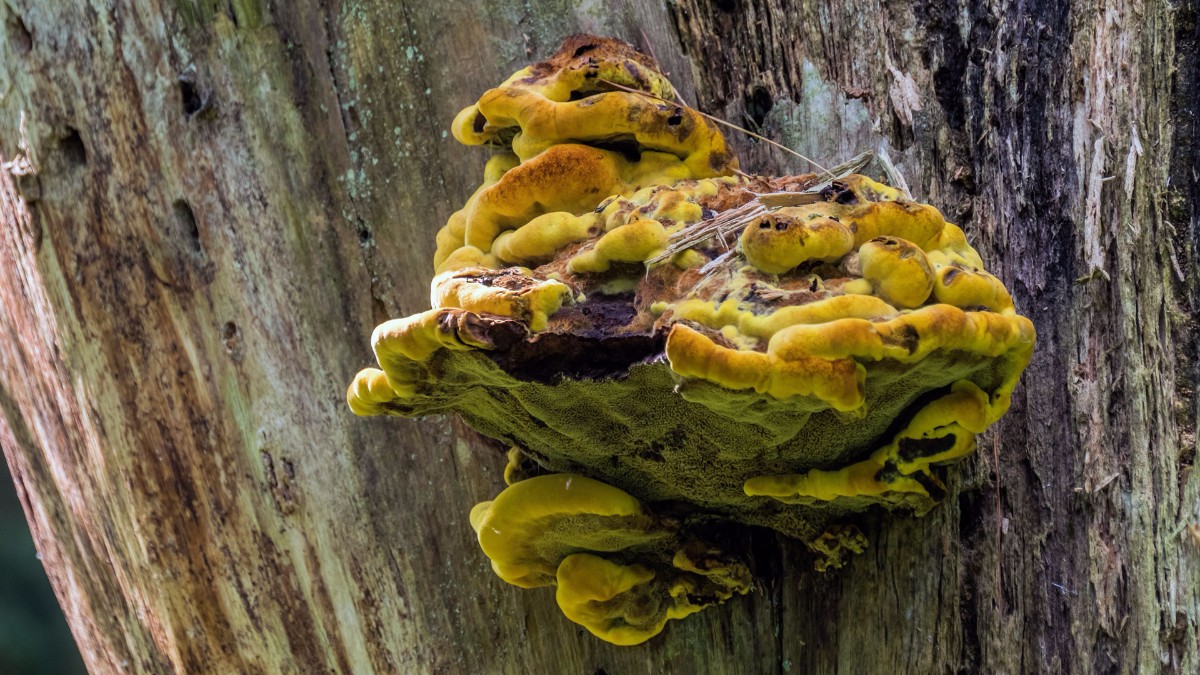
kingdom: Fungi
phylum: Basidiomycota
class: Agaricomycetes
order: Polyporales
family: Laetiporaceae
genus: Phaeolus
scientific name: Phaeolus schweinitzii
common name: brunporesvamp
